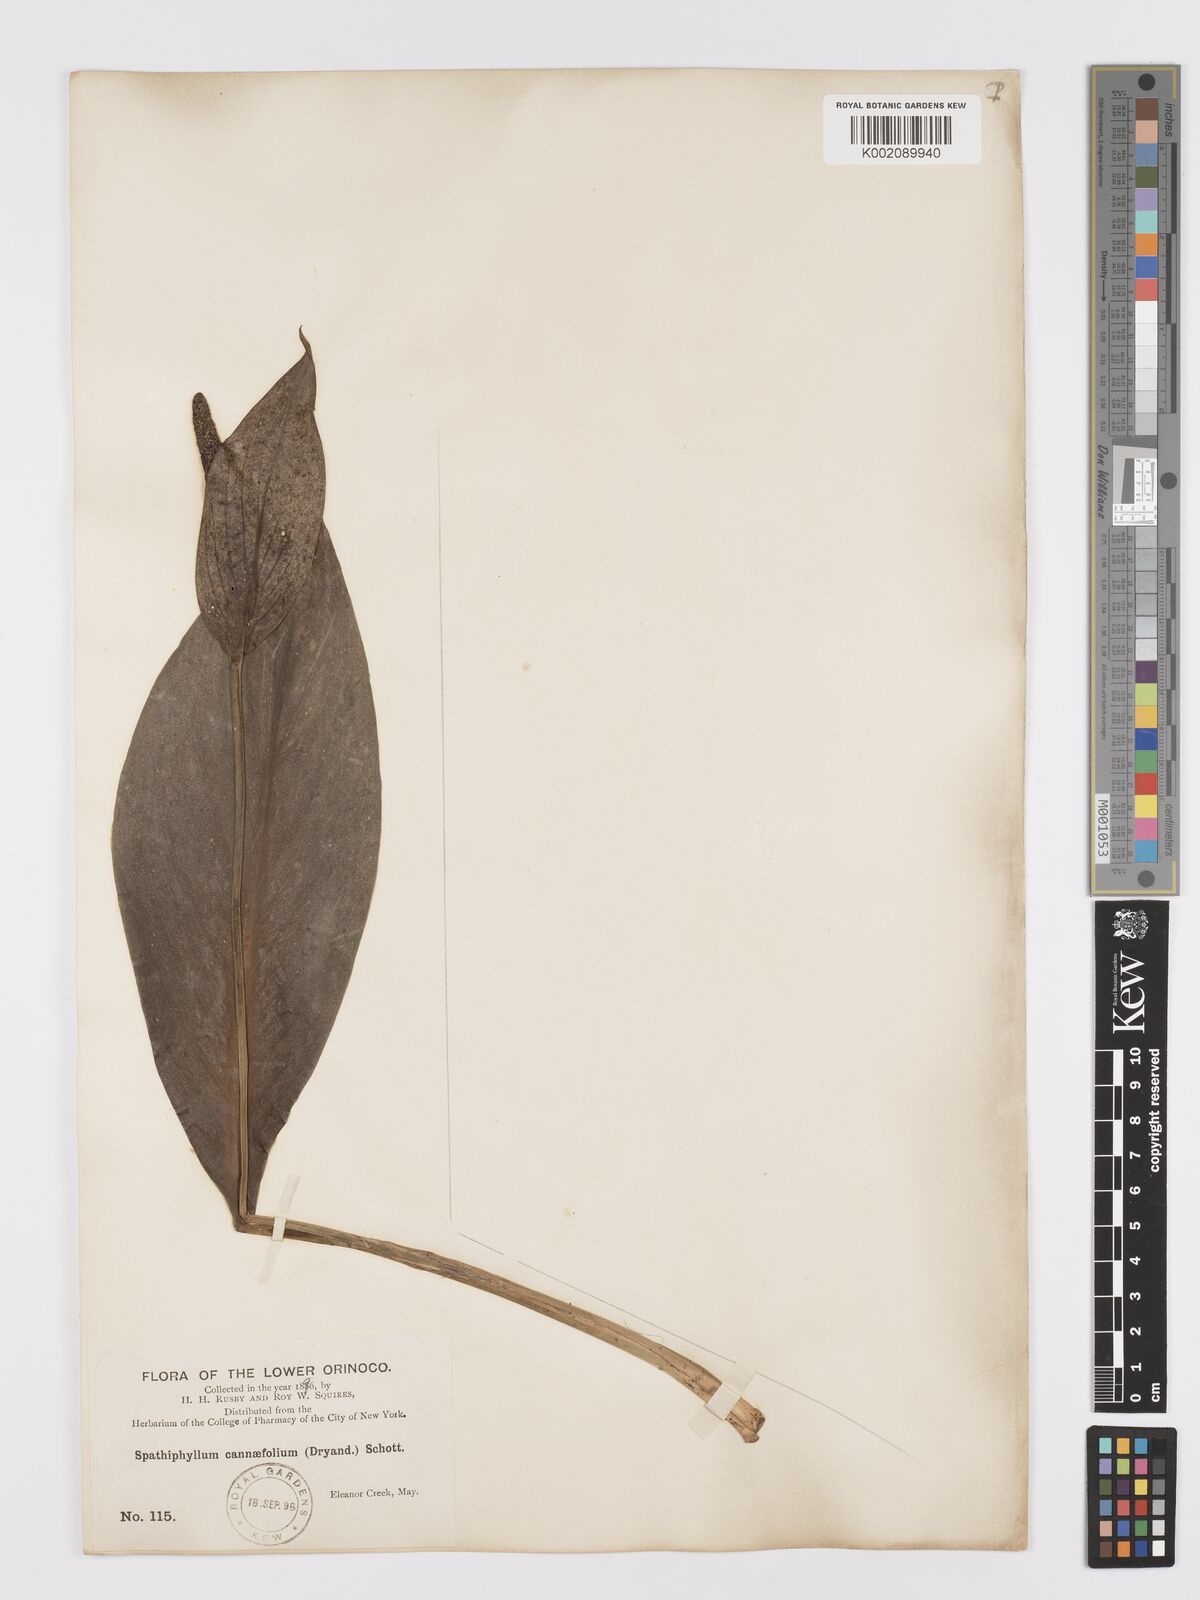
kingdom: Plantae
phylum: Tracheophyta
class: Liliopsida
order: Alismatales
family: Araceae
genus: Spathiphyllum
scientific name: Spathiphyllum cannifolium
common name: Spatheflower
